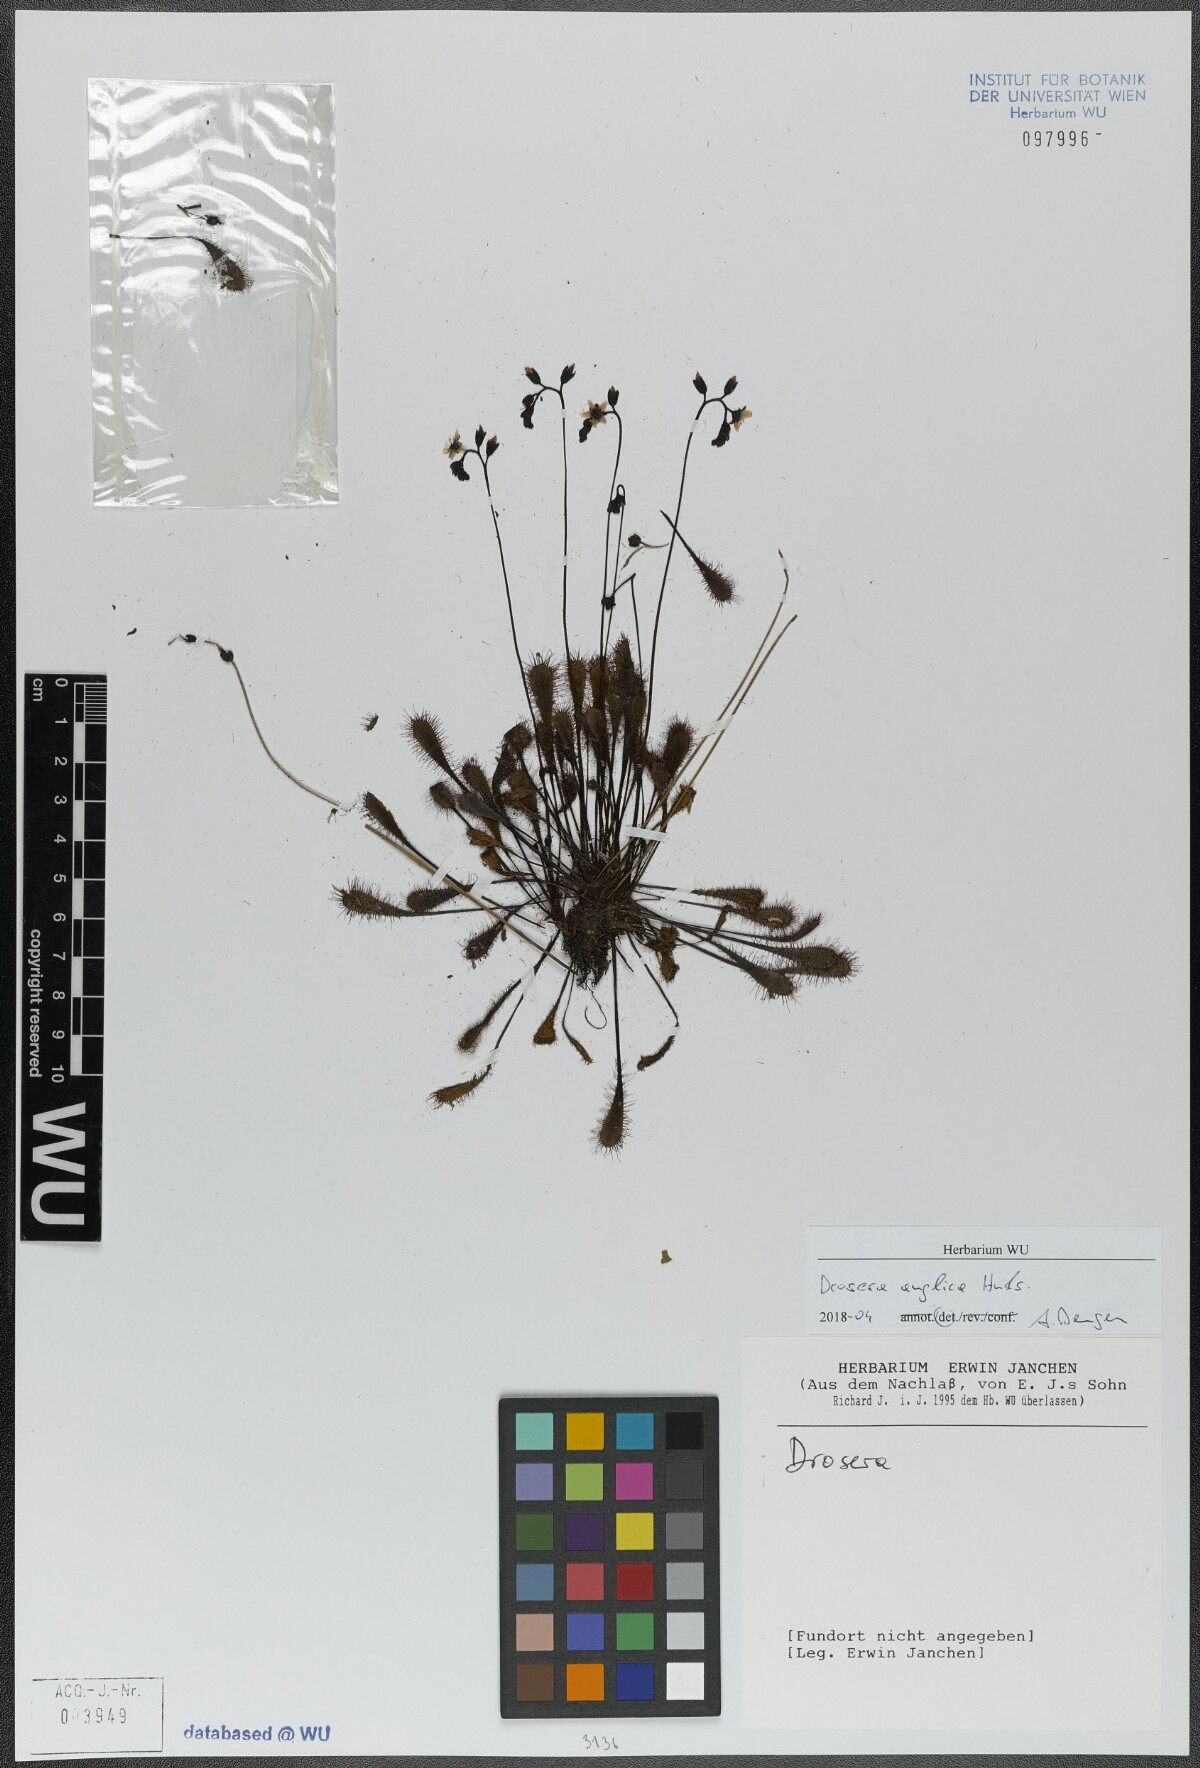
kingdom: Plantae
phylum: Tracheophyta
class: Magnoliopsida
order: Caryophyllales
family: Droseraceae
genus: Drosera
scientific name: Drosera anglica
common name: Great sundew
